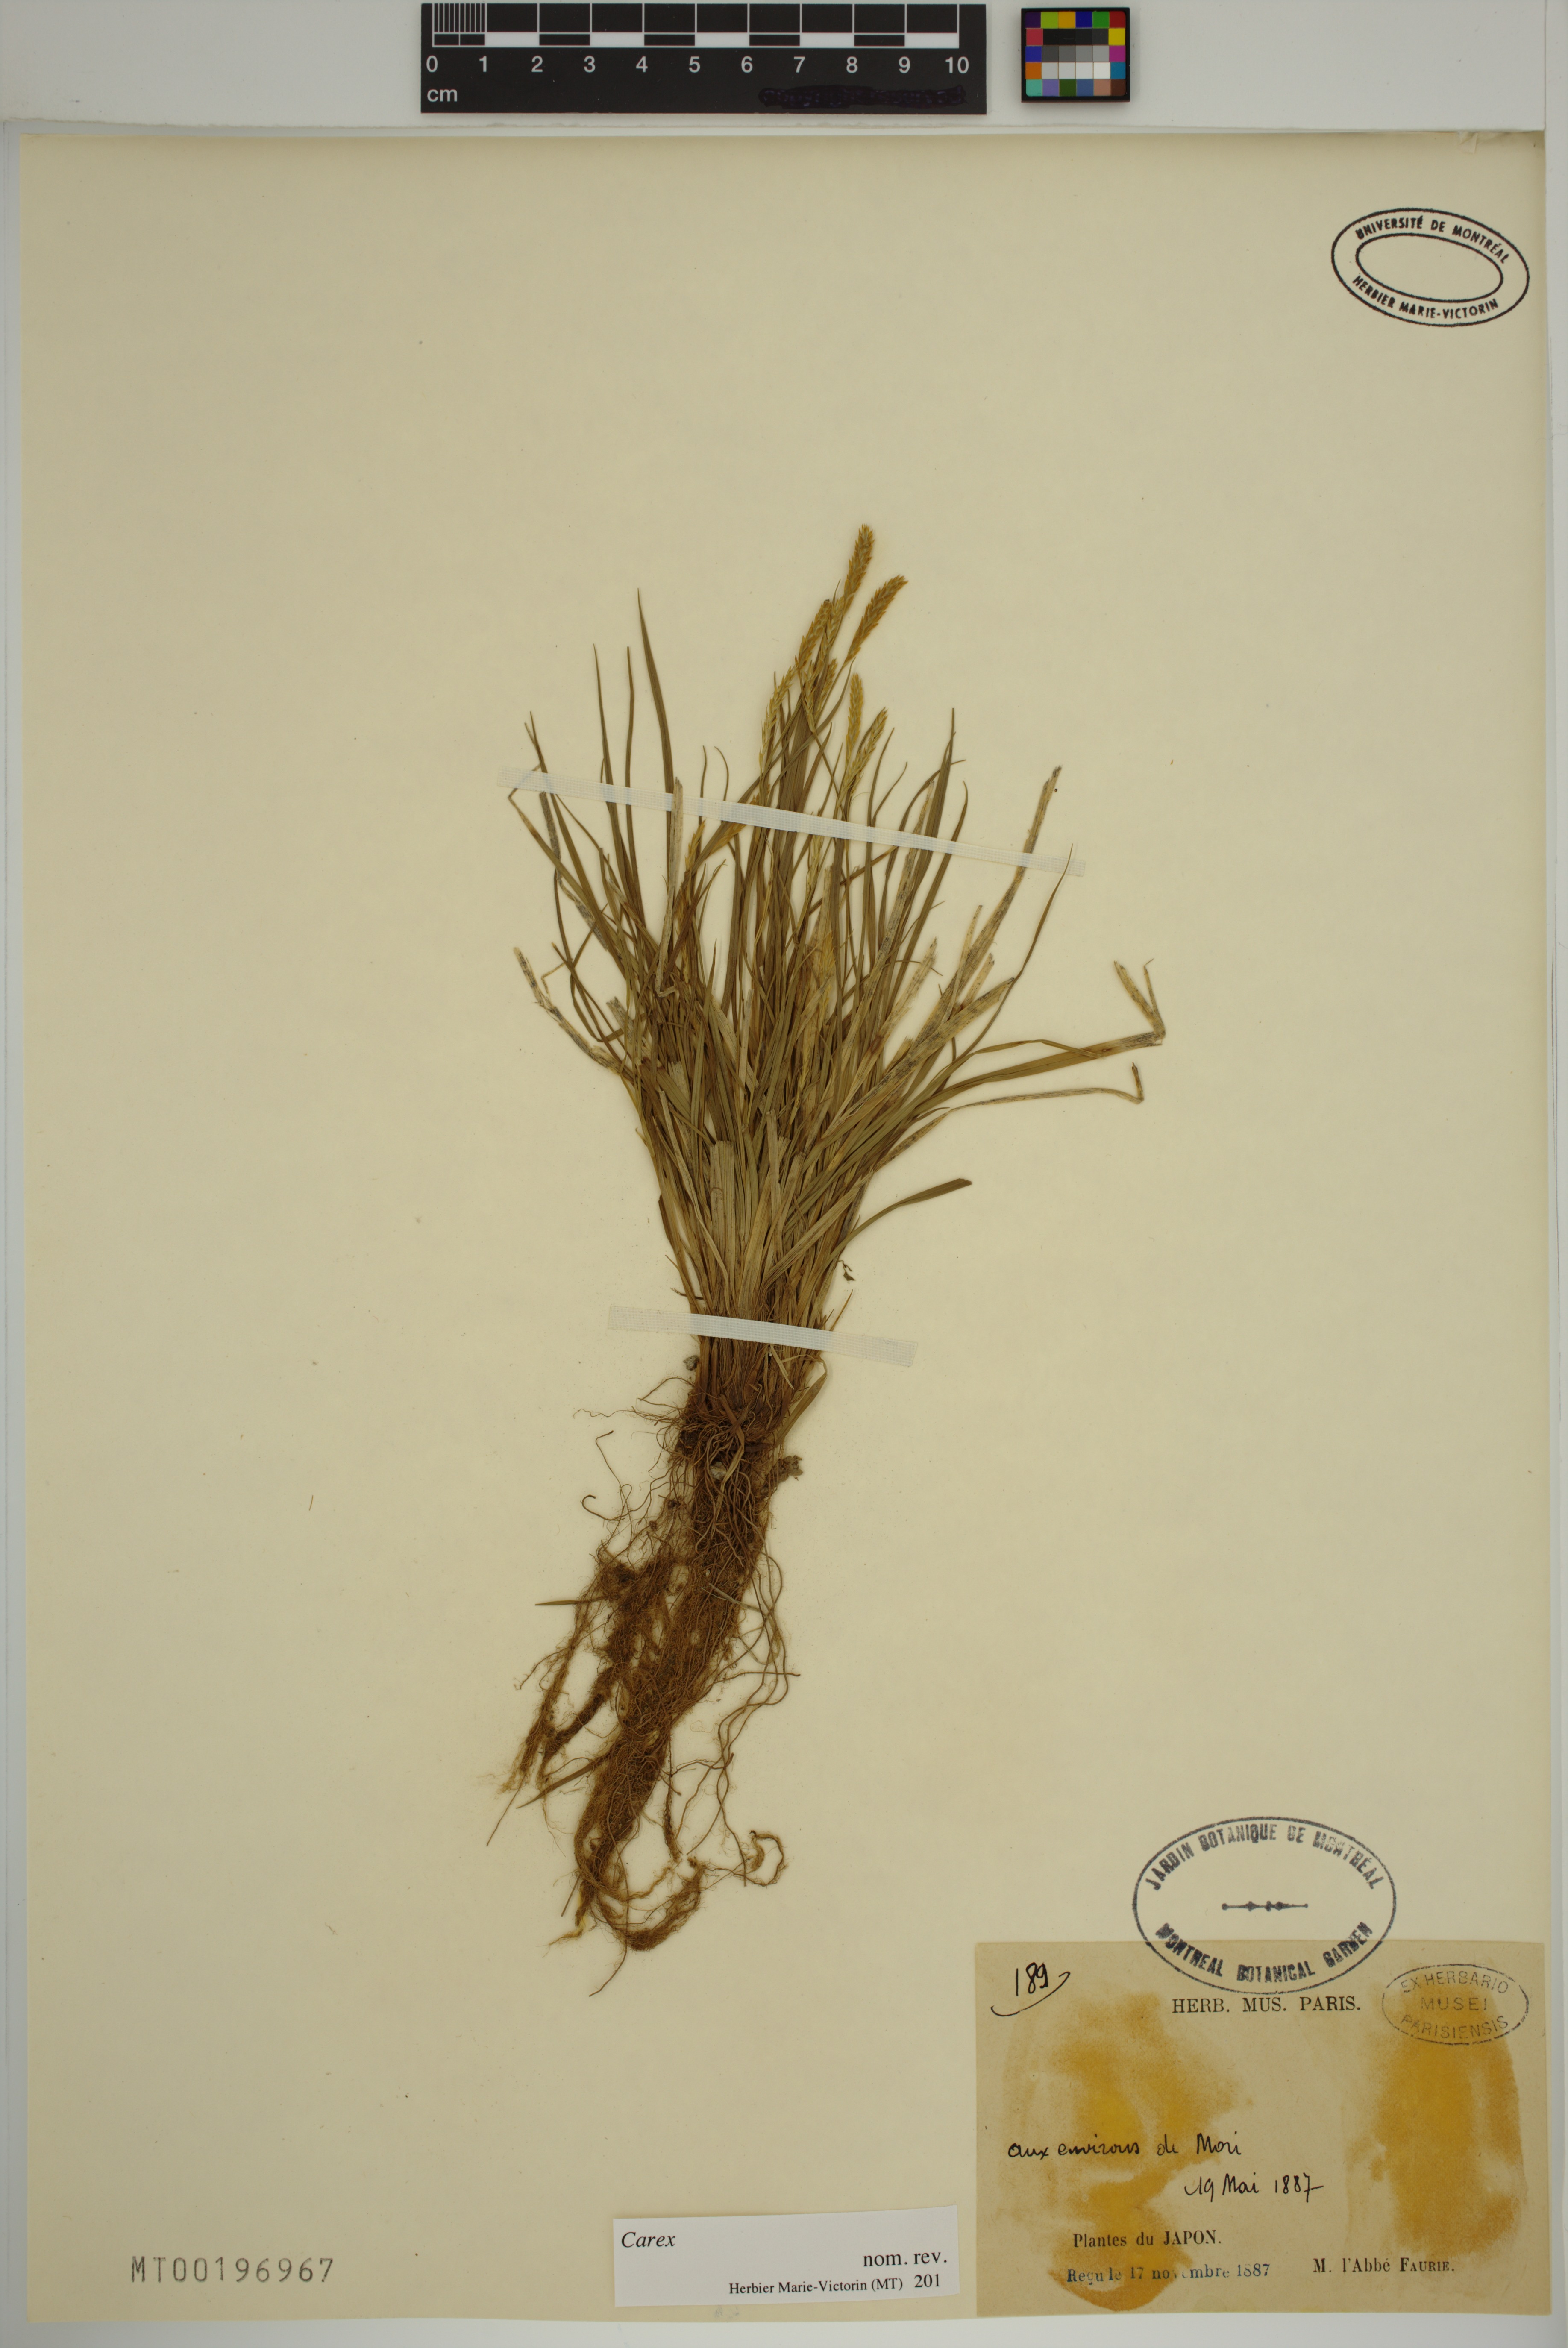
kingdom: Plantae
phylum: Tracheophyta
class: Liliopsida
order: Poales
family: Cyperaceae
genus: Carex
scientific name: Carex
